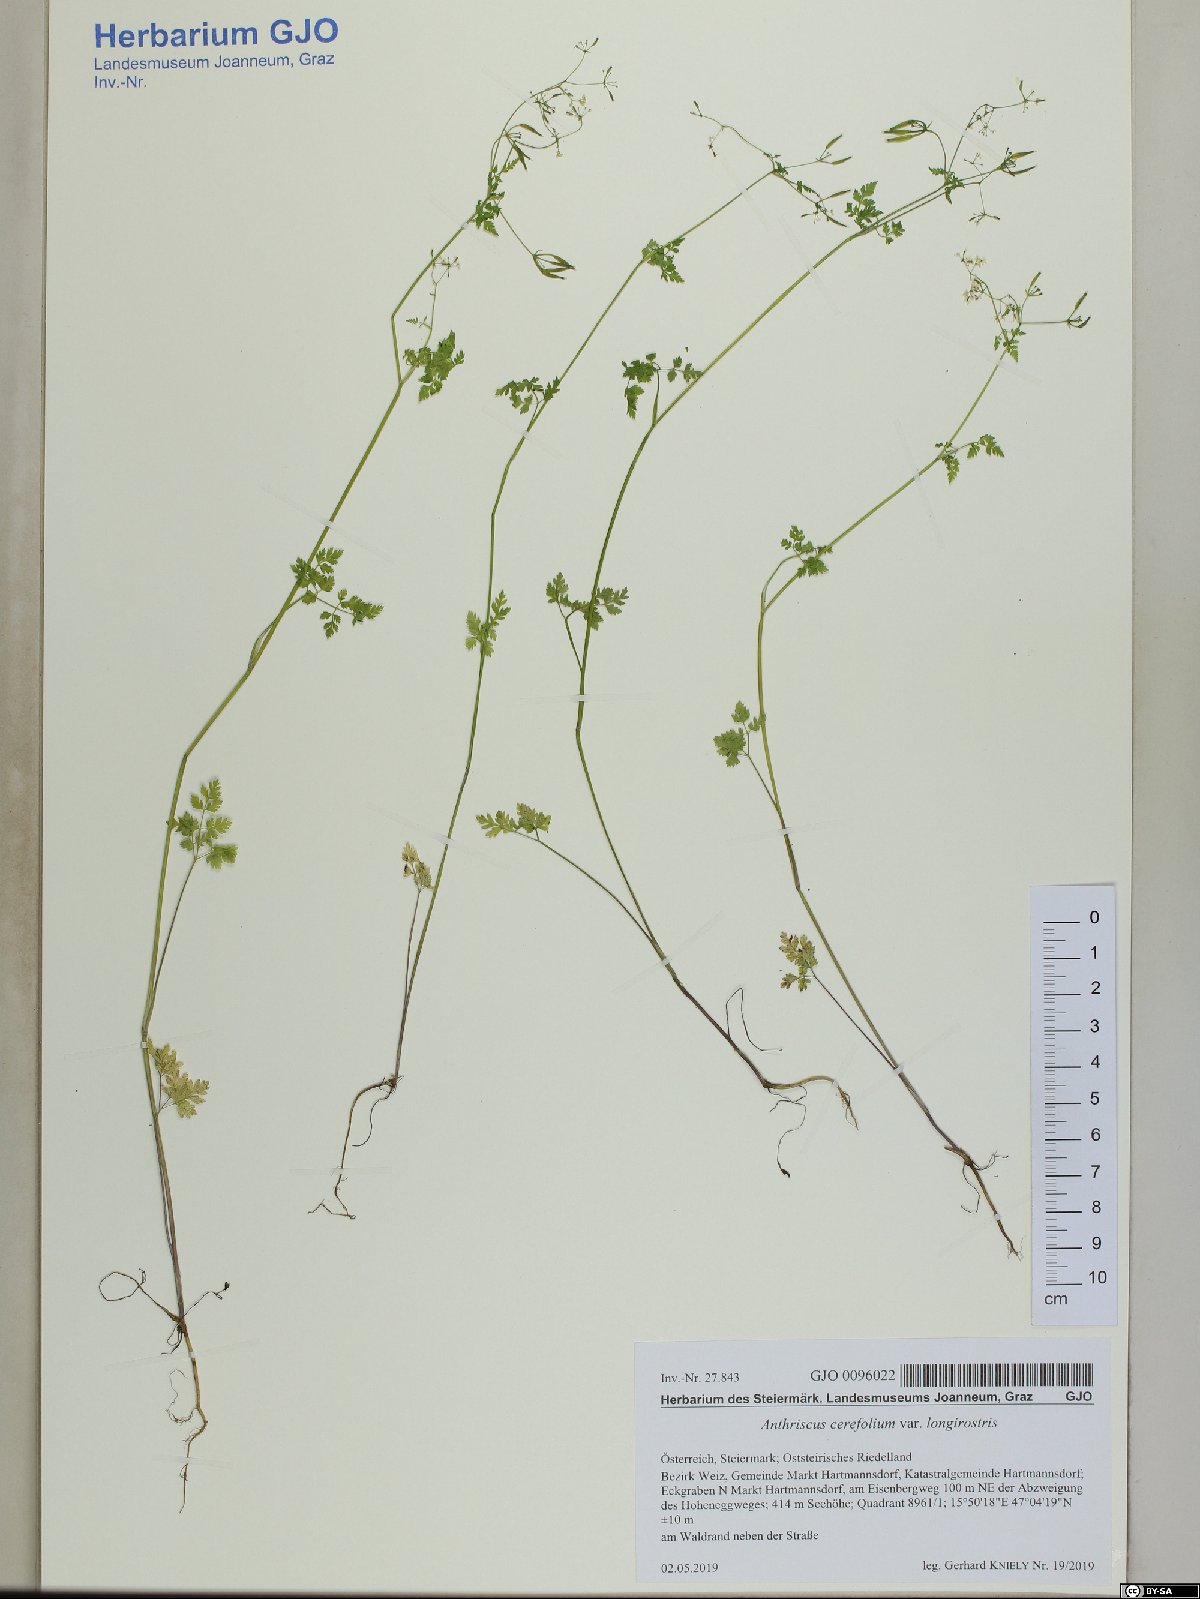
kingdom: Plantae
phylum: Tracheophyta
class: Magnoliopsida
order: Apiales
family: Apiaceae
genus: Anthriscus
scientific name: Anthriscus cerefolium
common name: Garden chervil
